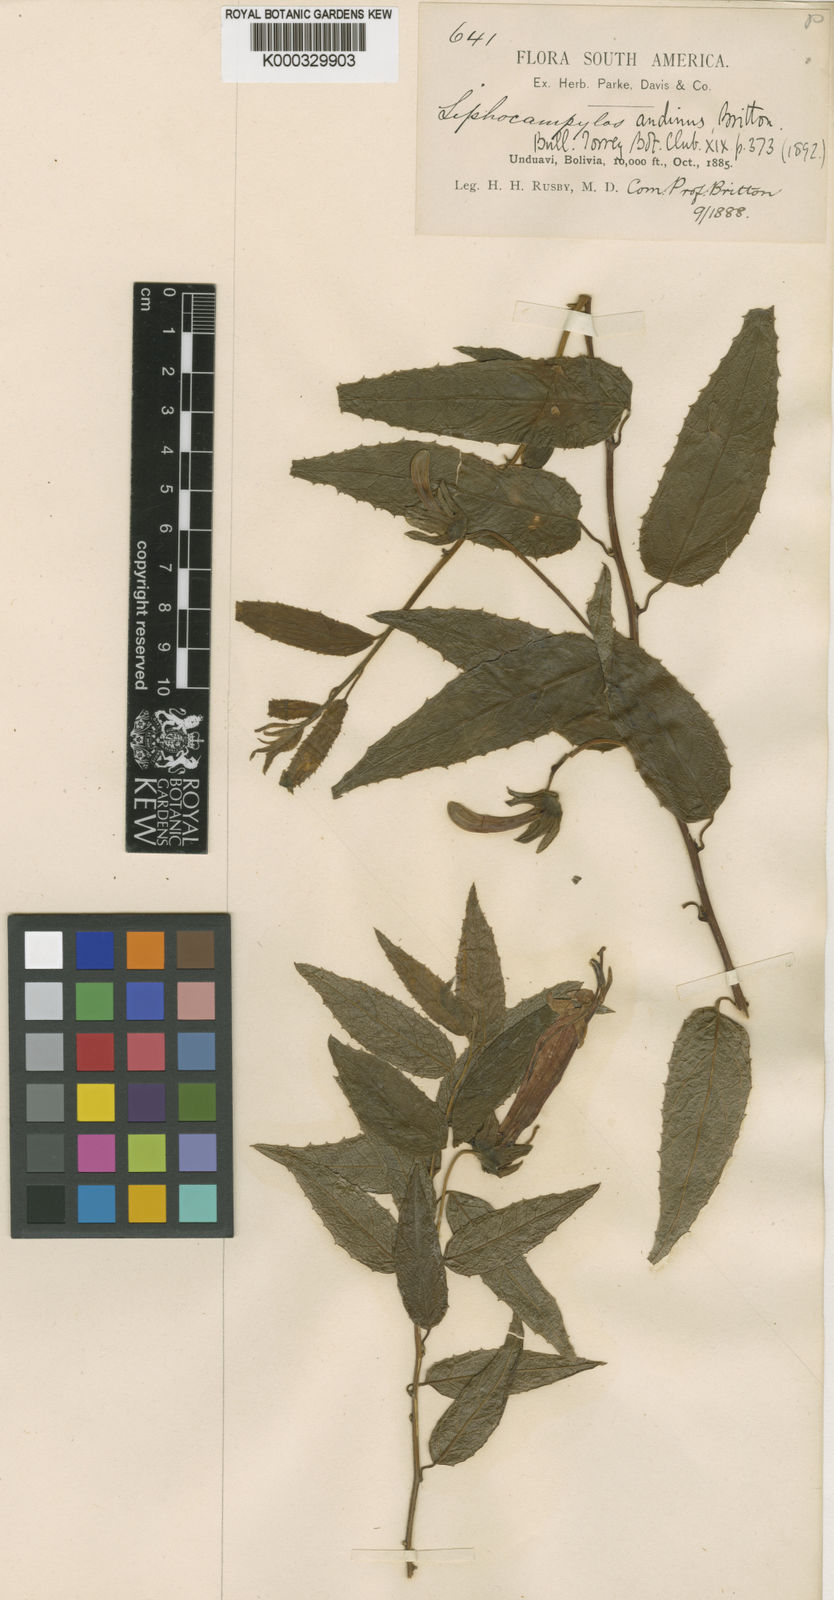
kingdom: Plantae
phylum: Tracheophyta
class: Magnoliopsida
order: Asterales
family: Campanulaceae
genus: Siphocampylus
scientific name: Siphocampylus andinus
